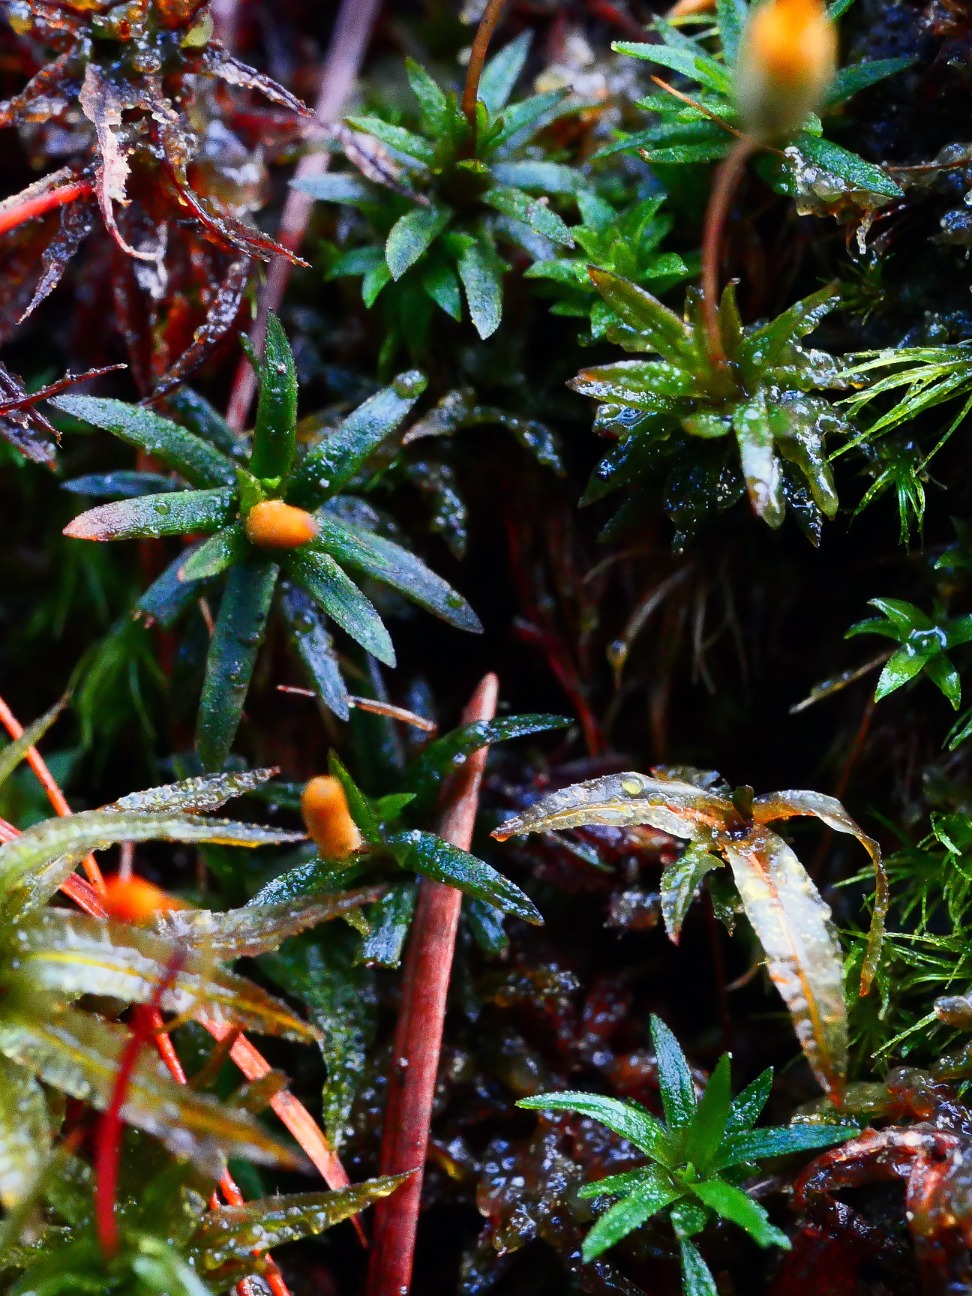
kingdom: Plantae
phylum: Bryophyta
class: Polytrichopsida
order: Polytrichales
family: Polytrichaceae
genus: Pogonatum
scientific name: Pogonatum aloides
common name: Smal urnekapsel
